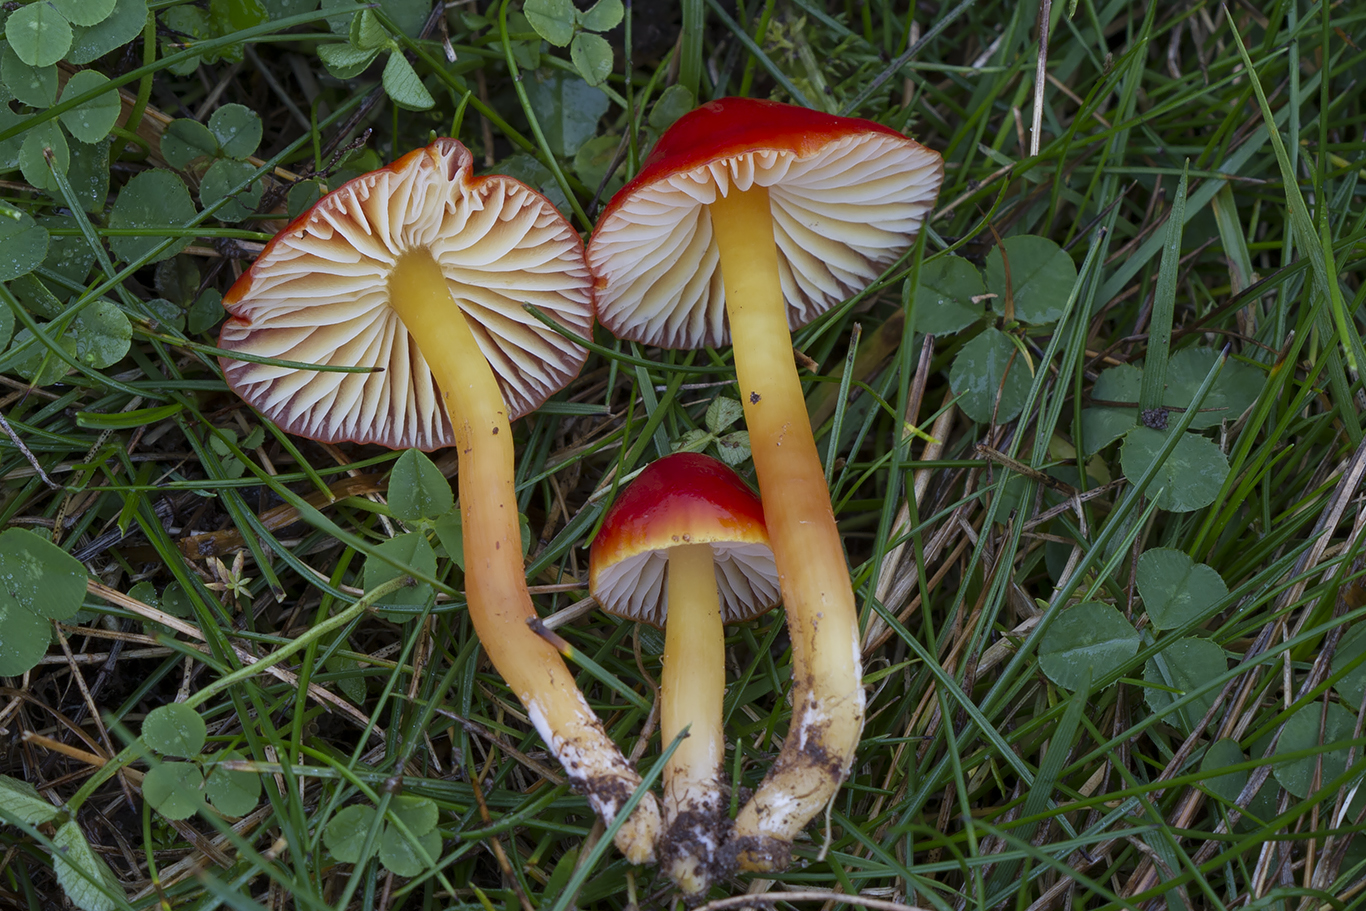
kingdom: Fungi
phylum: Basidiomycota
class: Agaricomycetes
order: Agaricales
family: Hygrophoraceae
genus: Hygrocybe
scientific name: Hygrocybe
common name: vokshat
